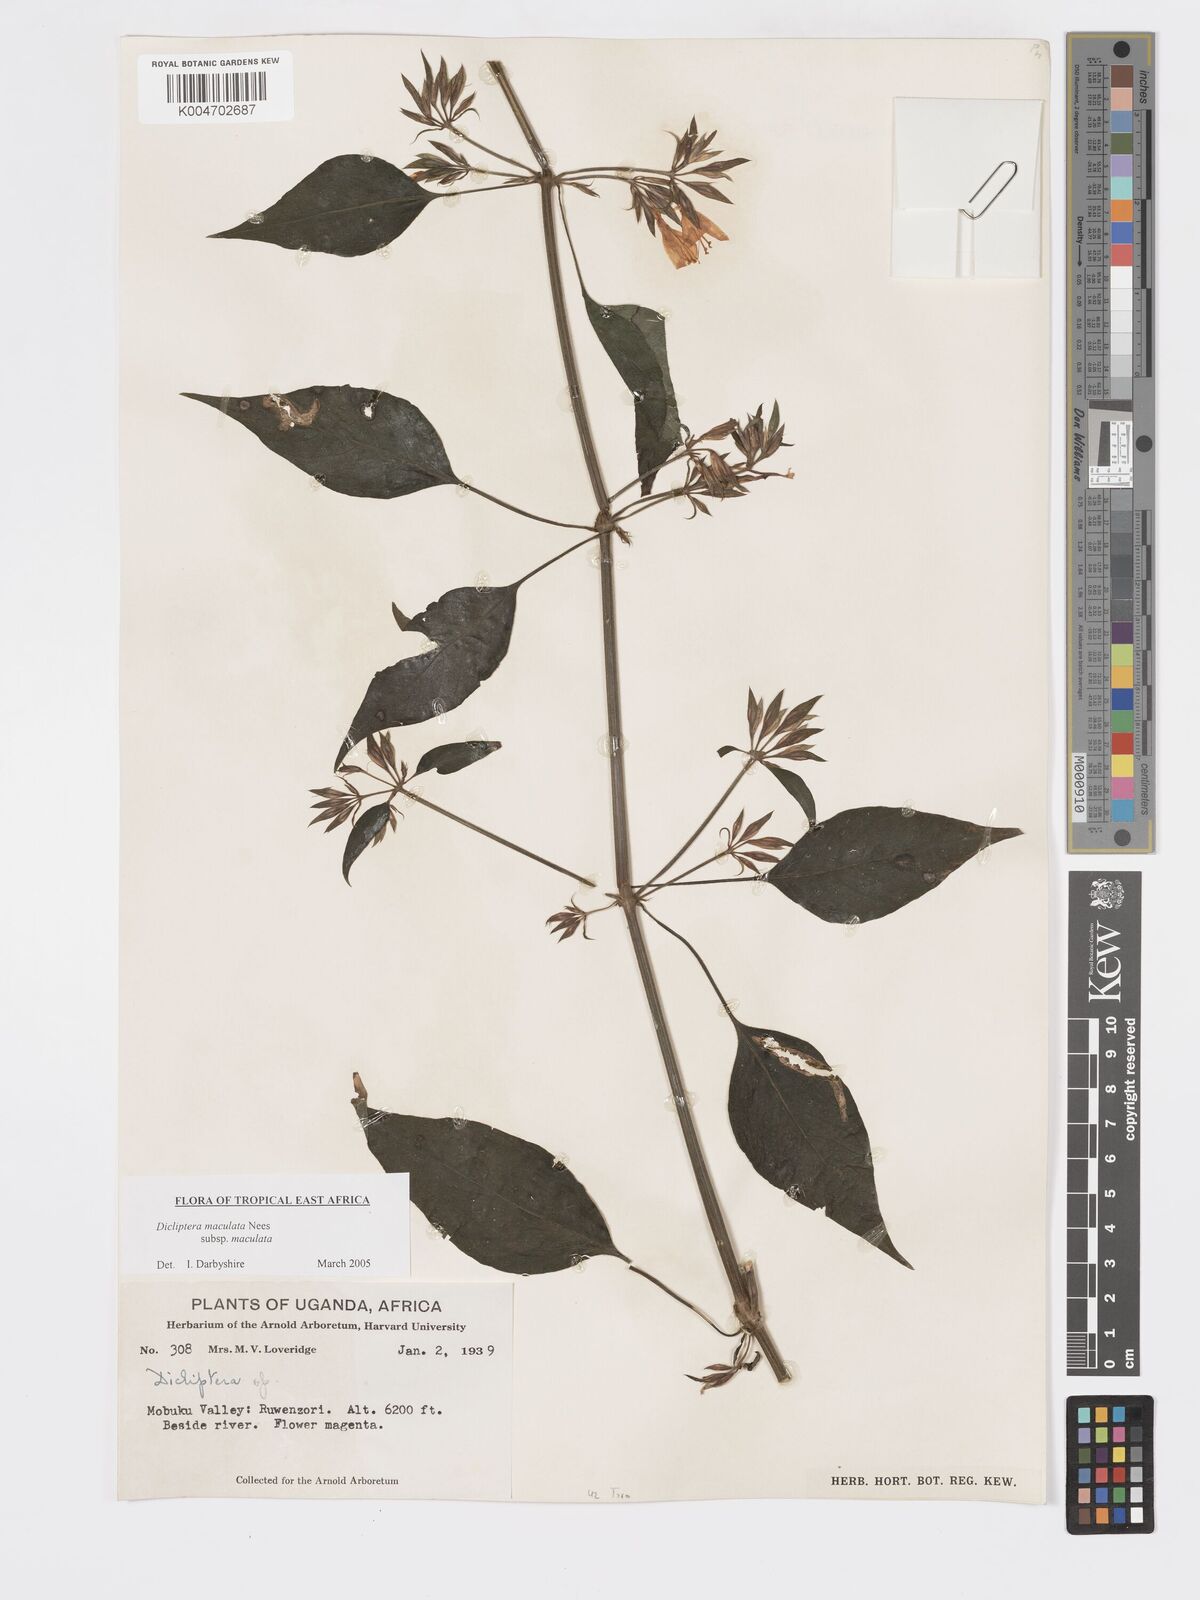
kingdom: Plantae
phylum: Tracheophyta
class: Magnoliopsida
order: Lamiales
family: Acanthaceae
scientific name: Acanthaceae
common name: Acanthaceae
